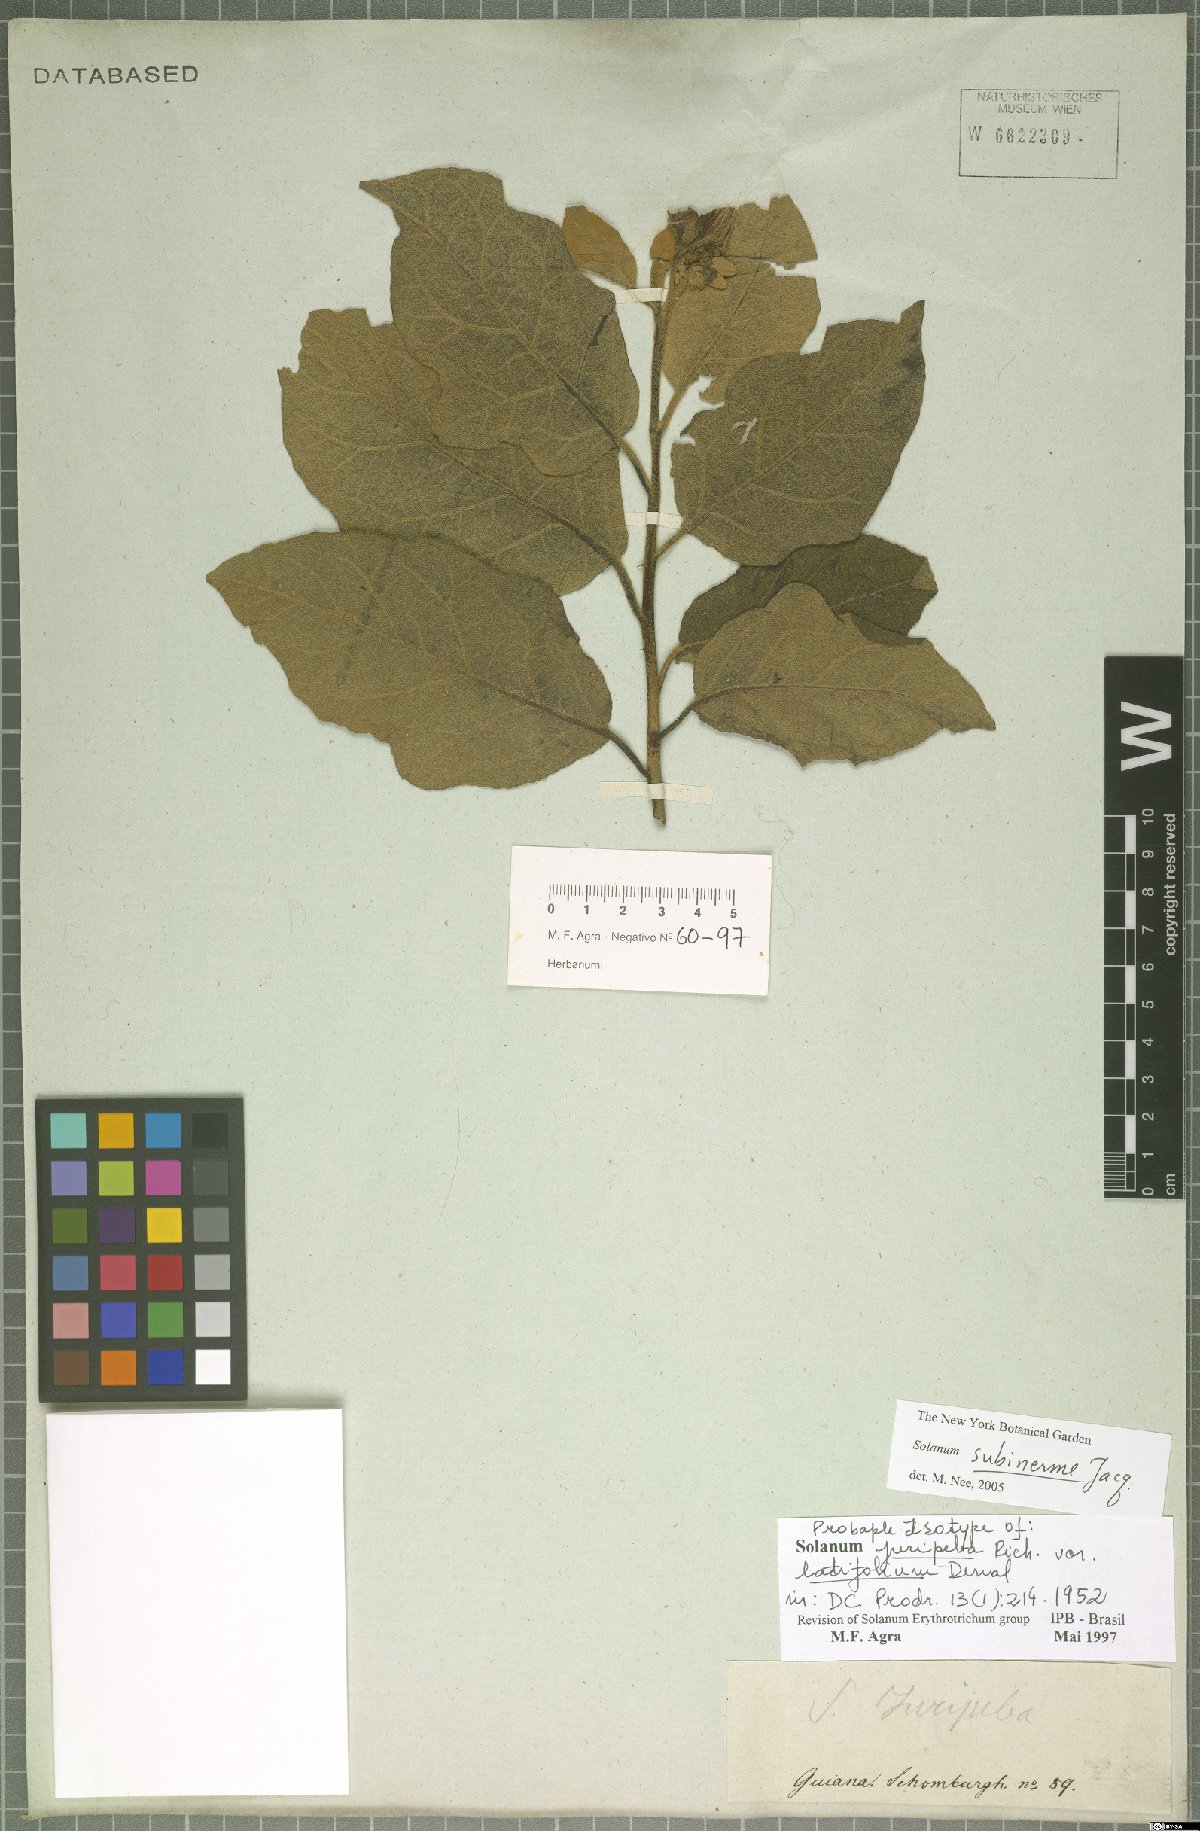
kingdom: Plantae
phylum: Tracheophyta
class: Magnoliopsida
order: Solanales
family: Solanaceae
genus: Solanum
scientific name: Solanum subinerme
